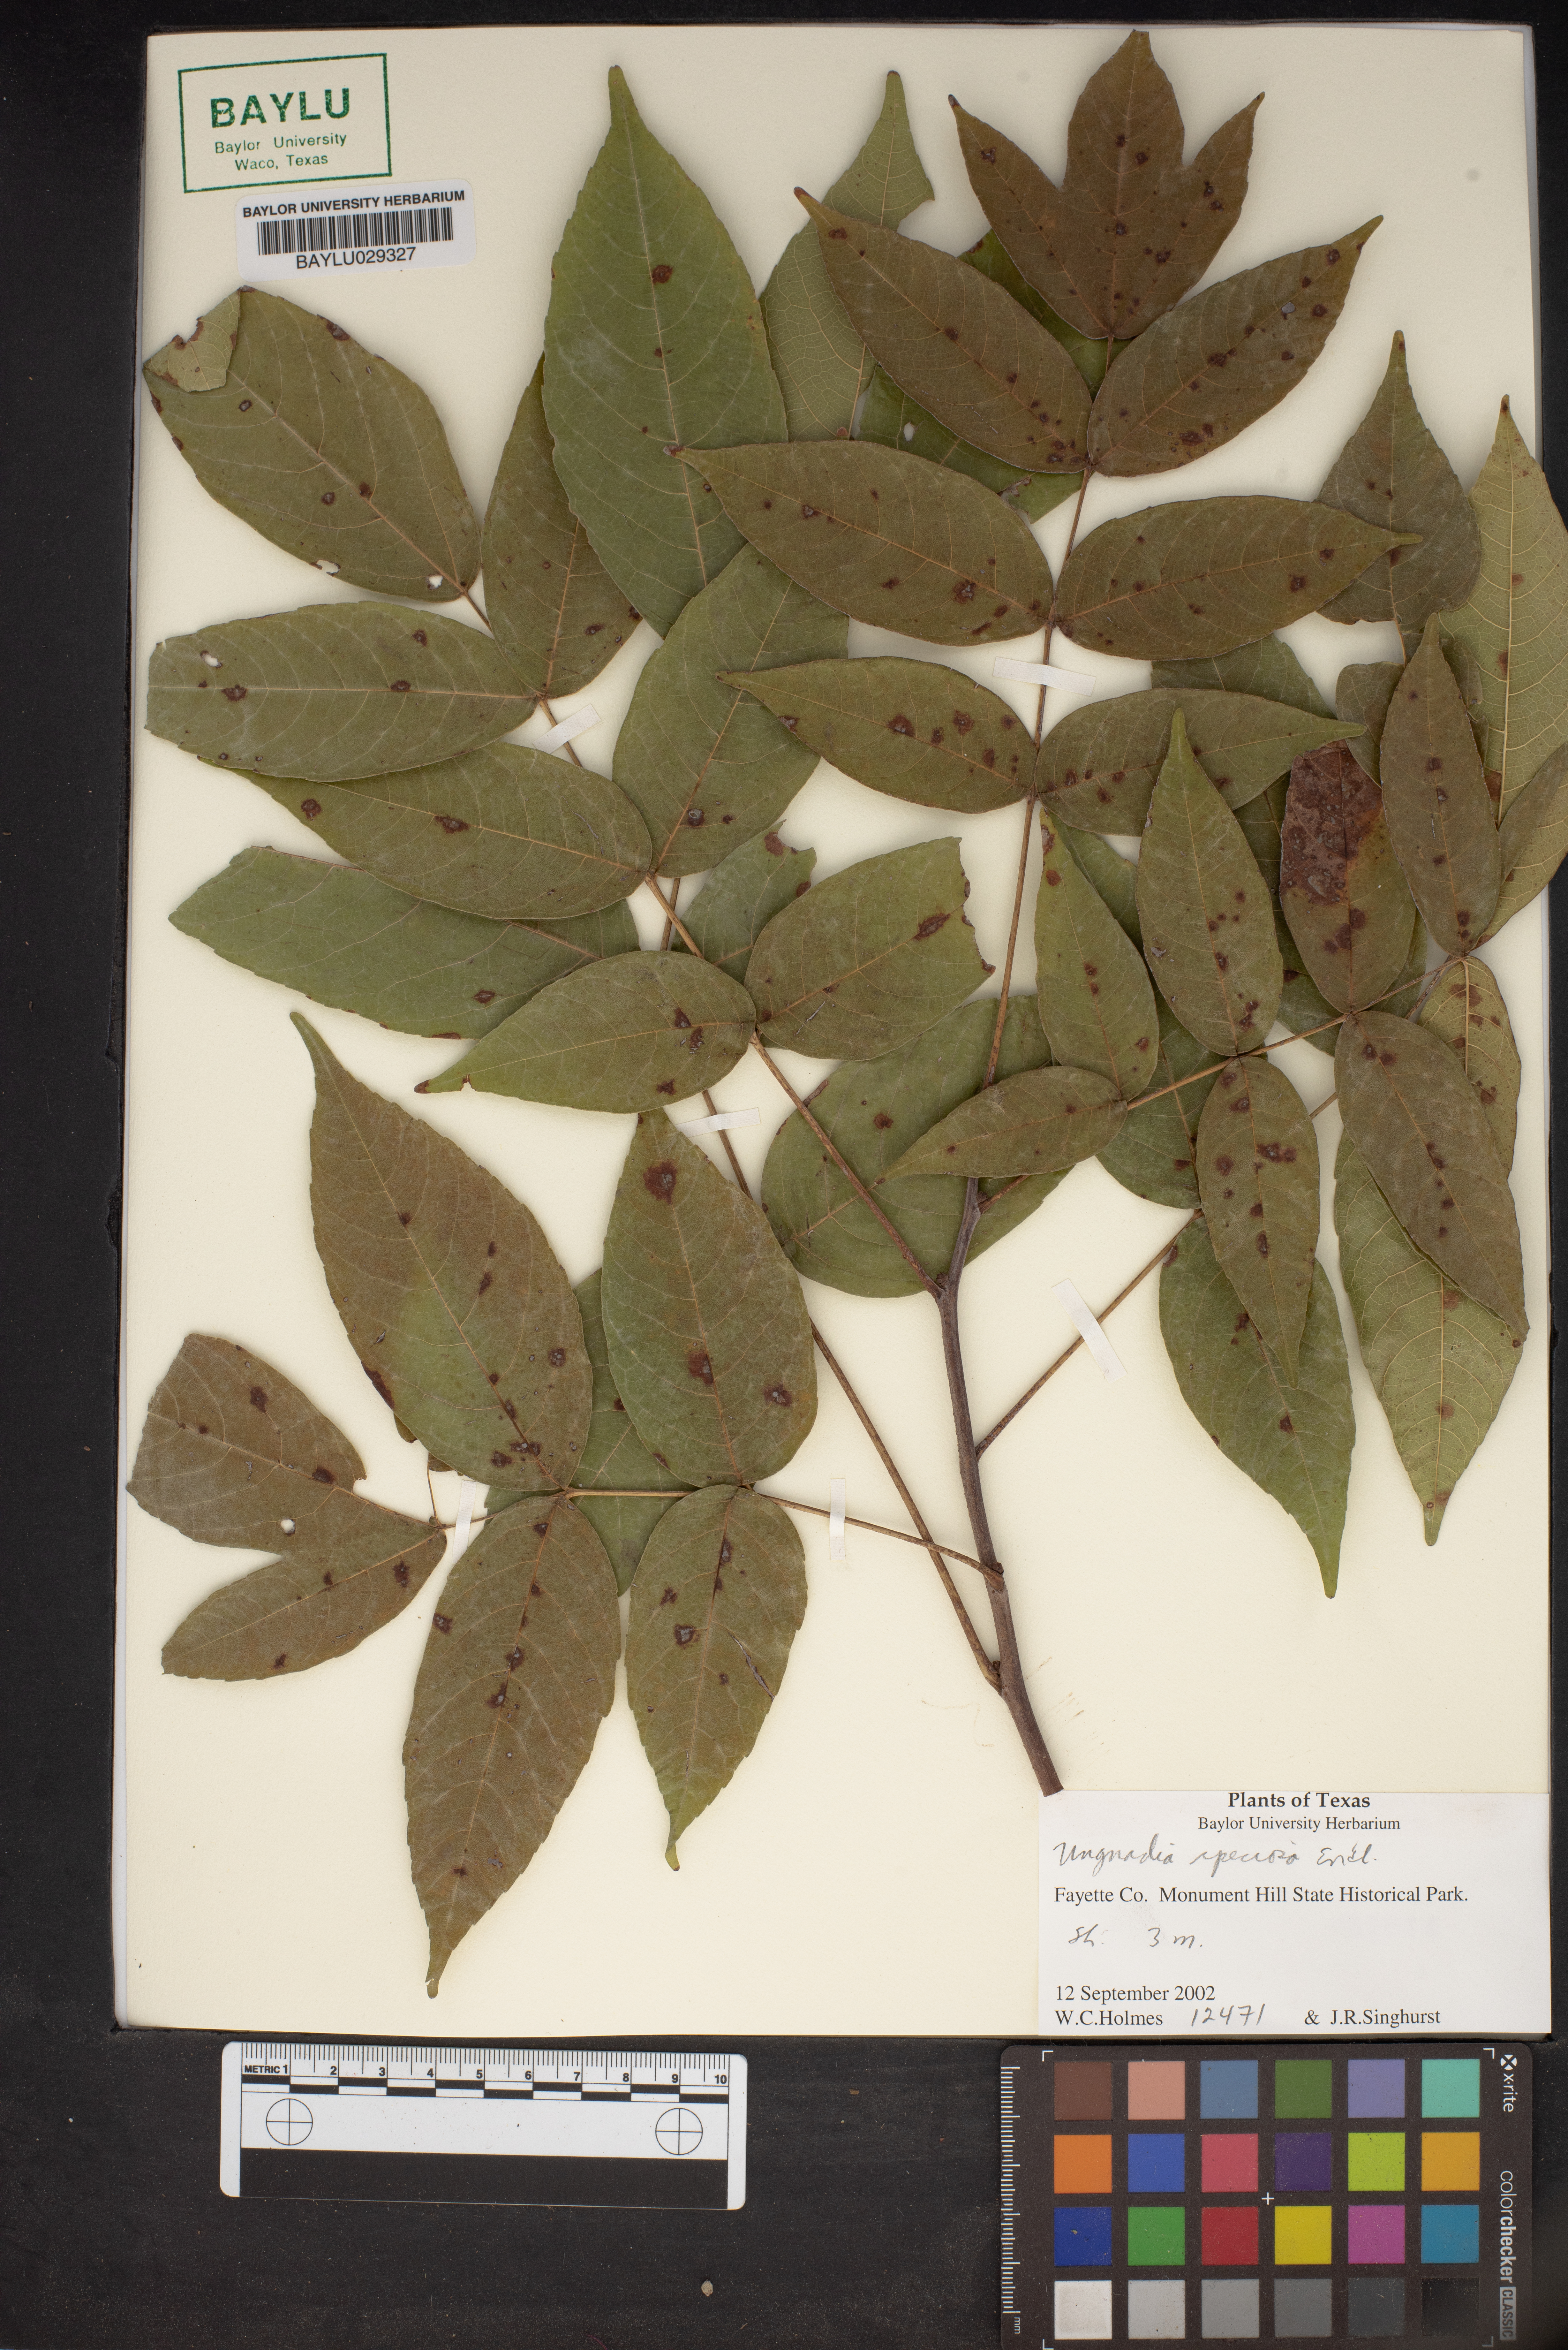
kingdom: Plantae
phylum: Tracheophyta
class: Magnoliopsida
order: Sapindales
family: Sapindaceae
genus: Ungnadia
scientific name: Ungnadia speciosa
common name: Texas-buckeye
